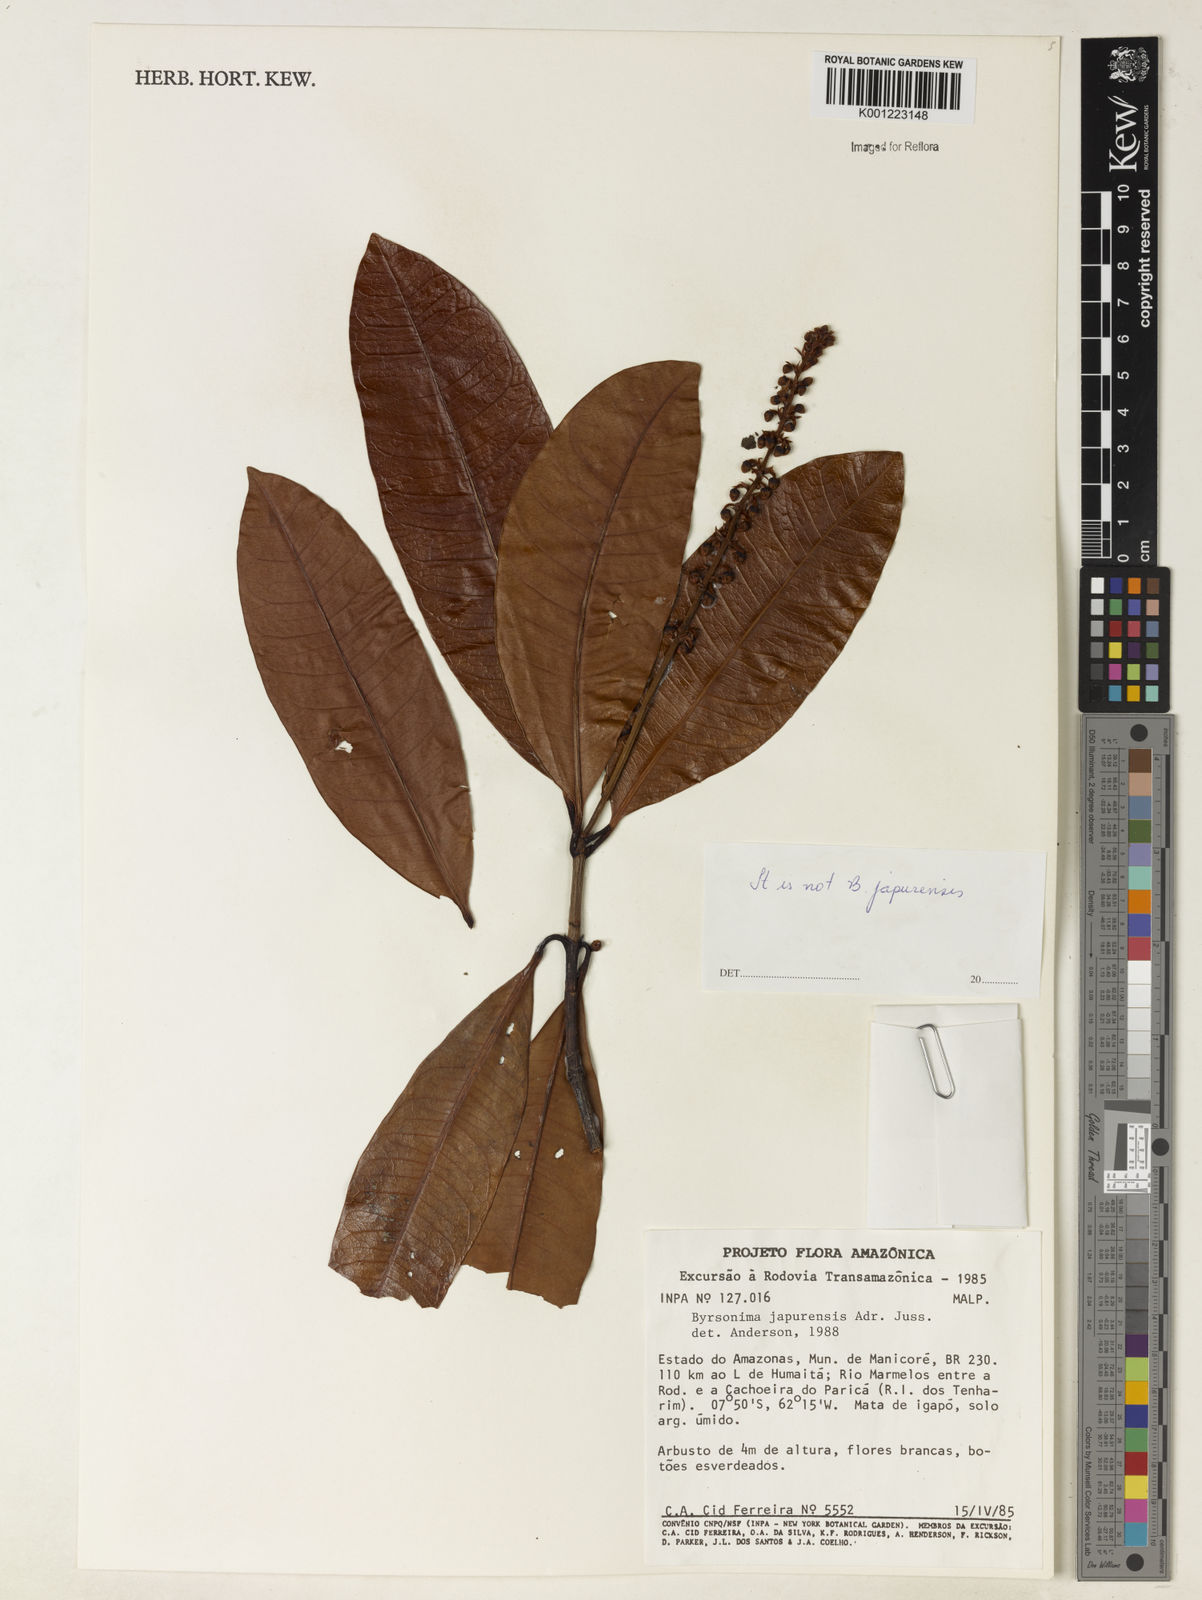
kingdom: Plantae
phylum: Tracheophyta
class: Magnoliopsida
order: Malpighiales
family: Malpighiaceae
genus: Byrsonima
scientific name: Byrsonima
